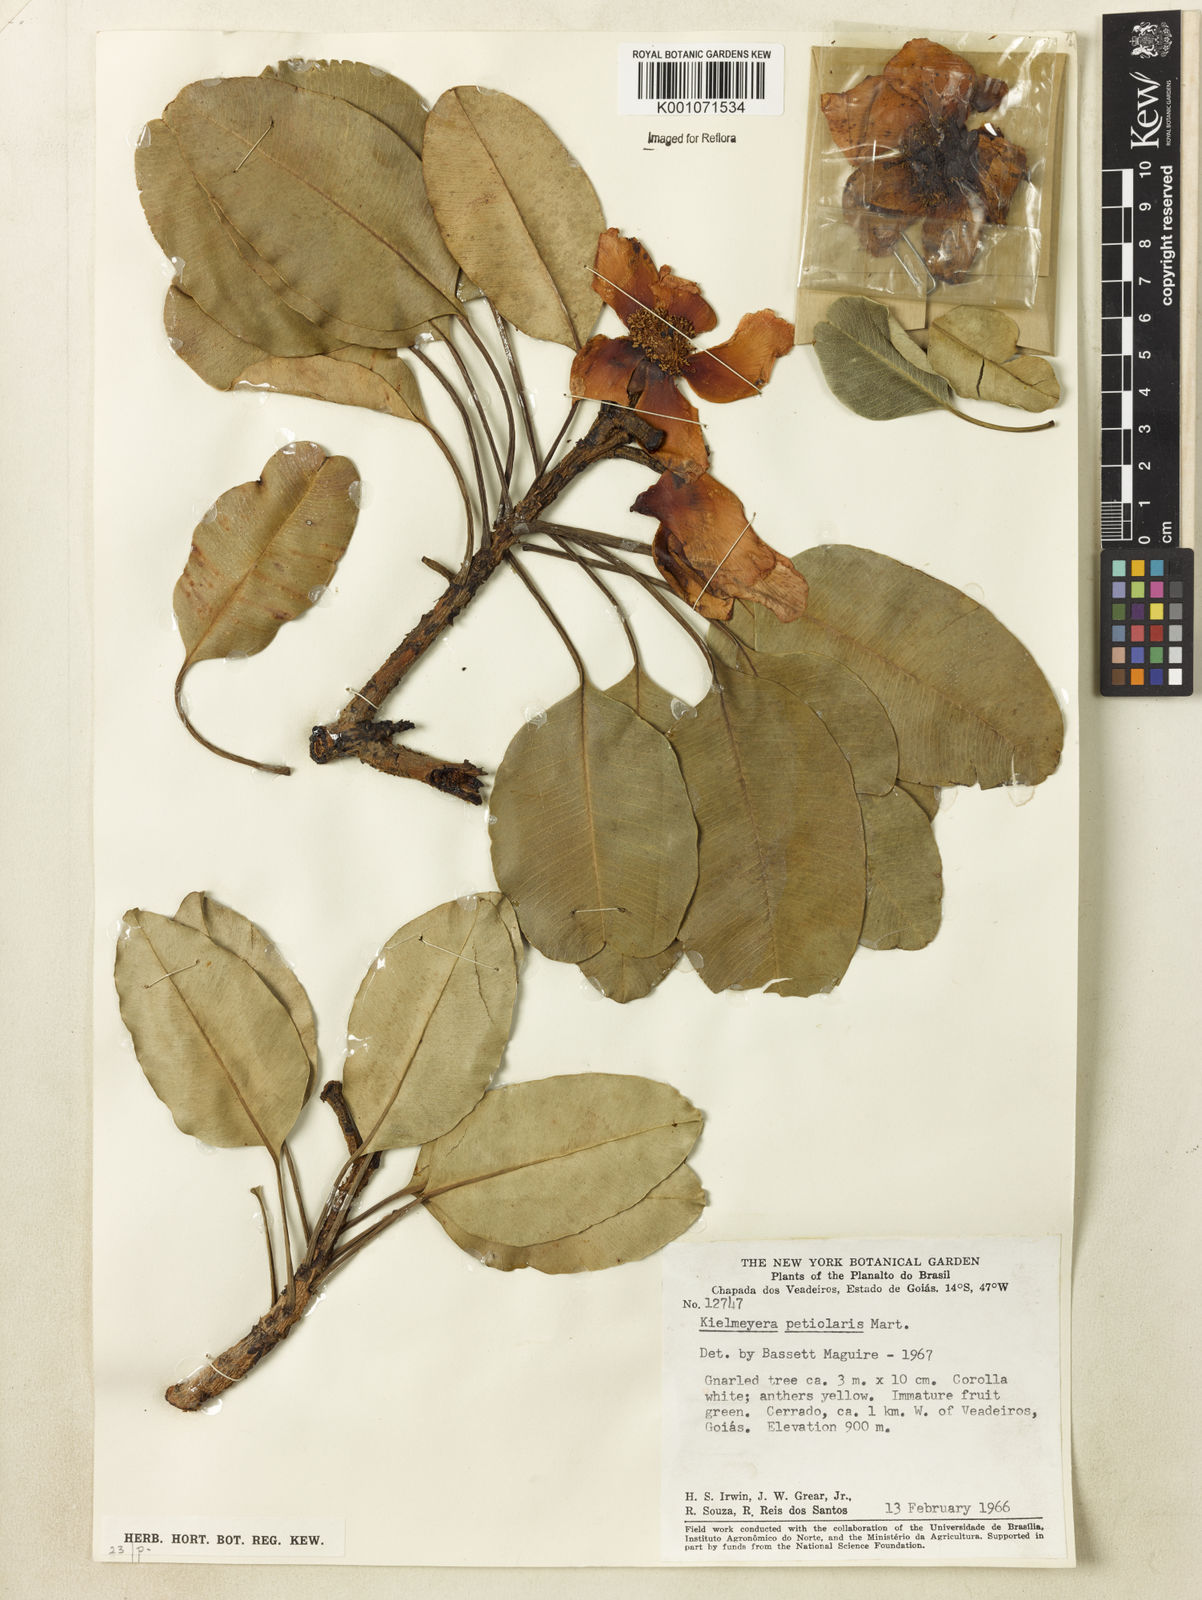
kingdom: Plantae
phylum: Tracheophyta
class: Magnoliopsida
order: Malpighiales
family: Calophyllaceae
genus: Kielmeyera
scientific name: Kielmeyera petiolaris
